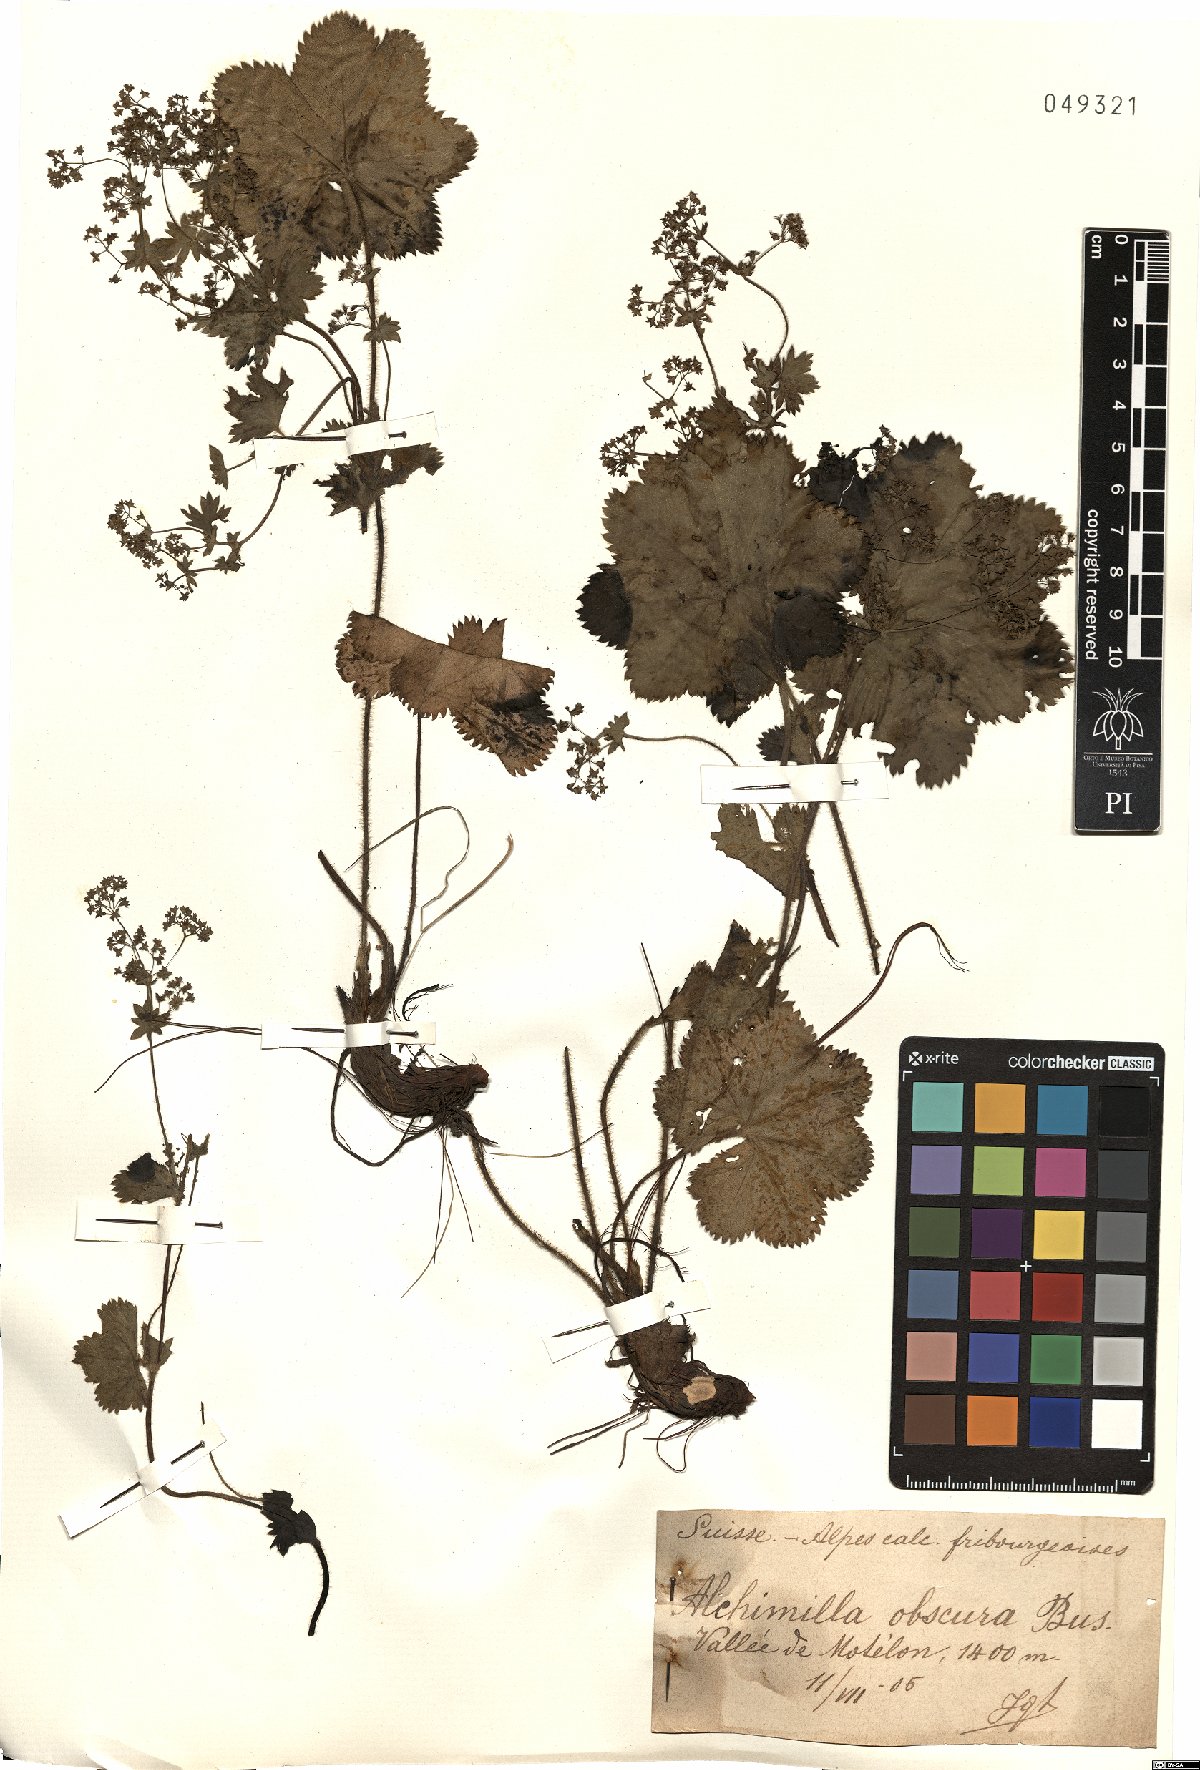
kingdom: Plantae
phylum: Tracheophyta
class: Magnoliopsida
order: Rosales
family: Rosaceae
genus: Alchemilla
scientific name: Alchemilla obscura
